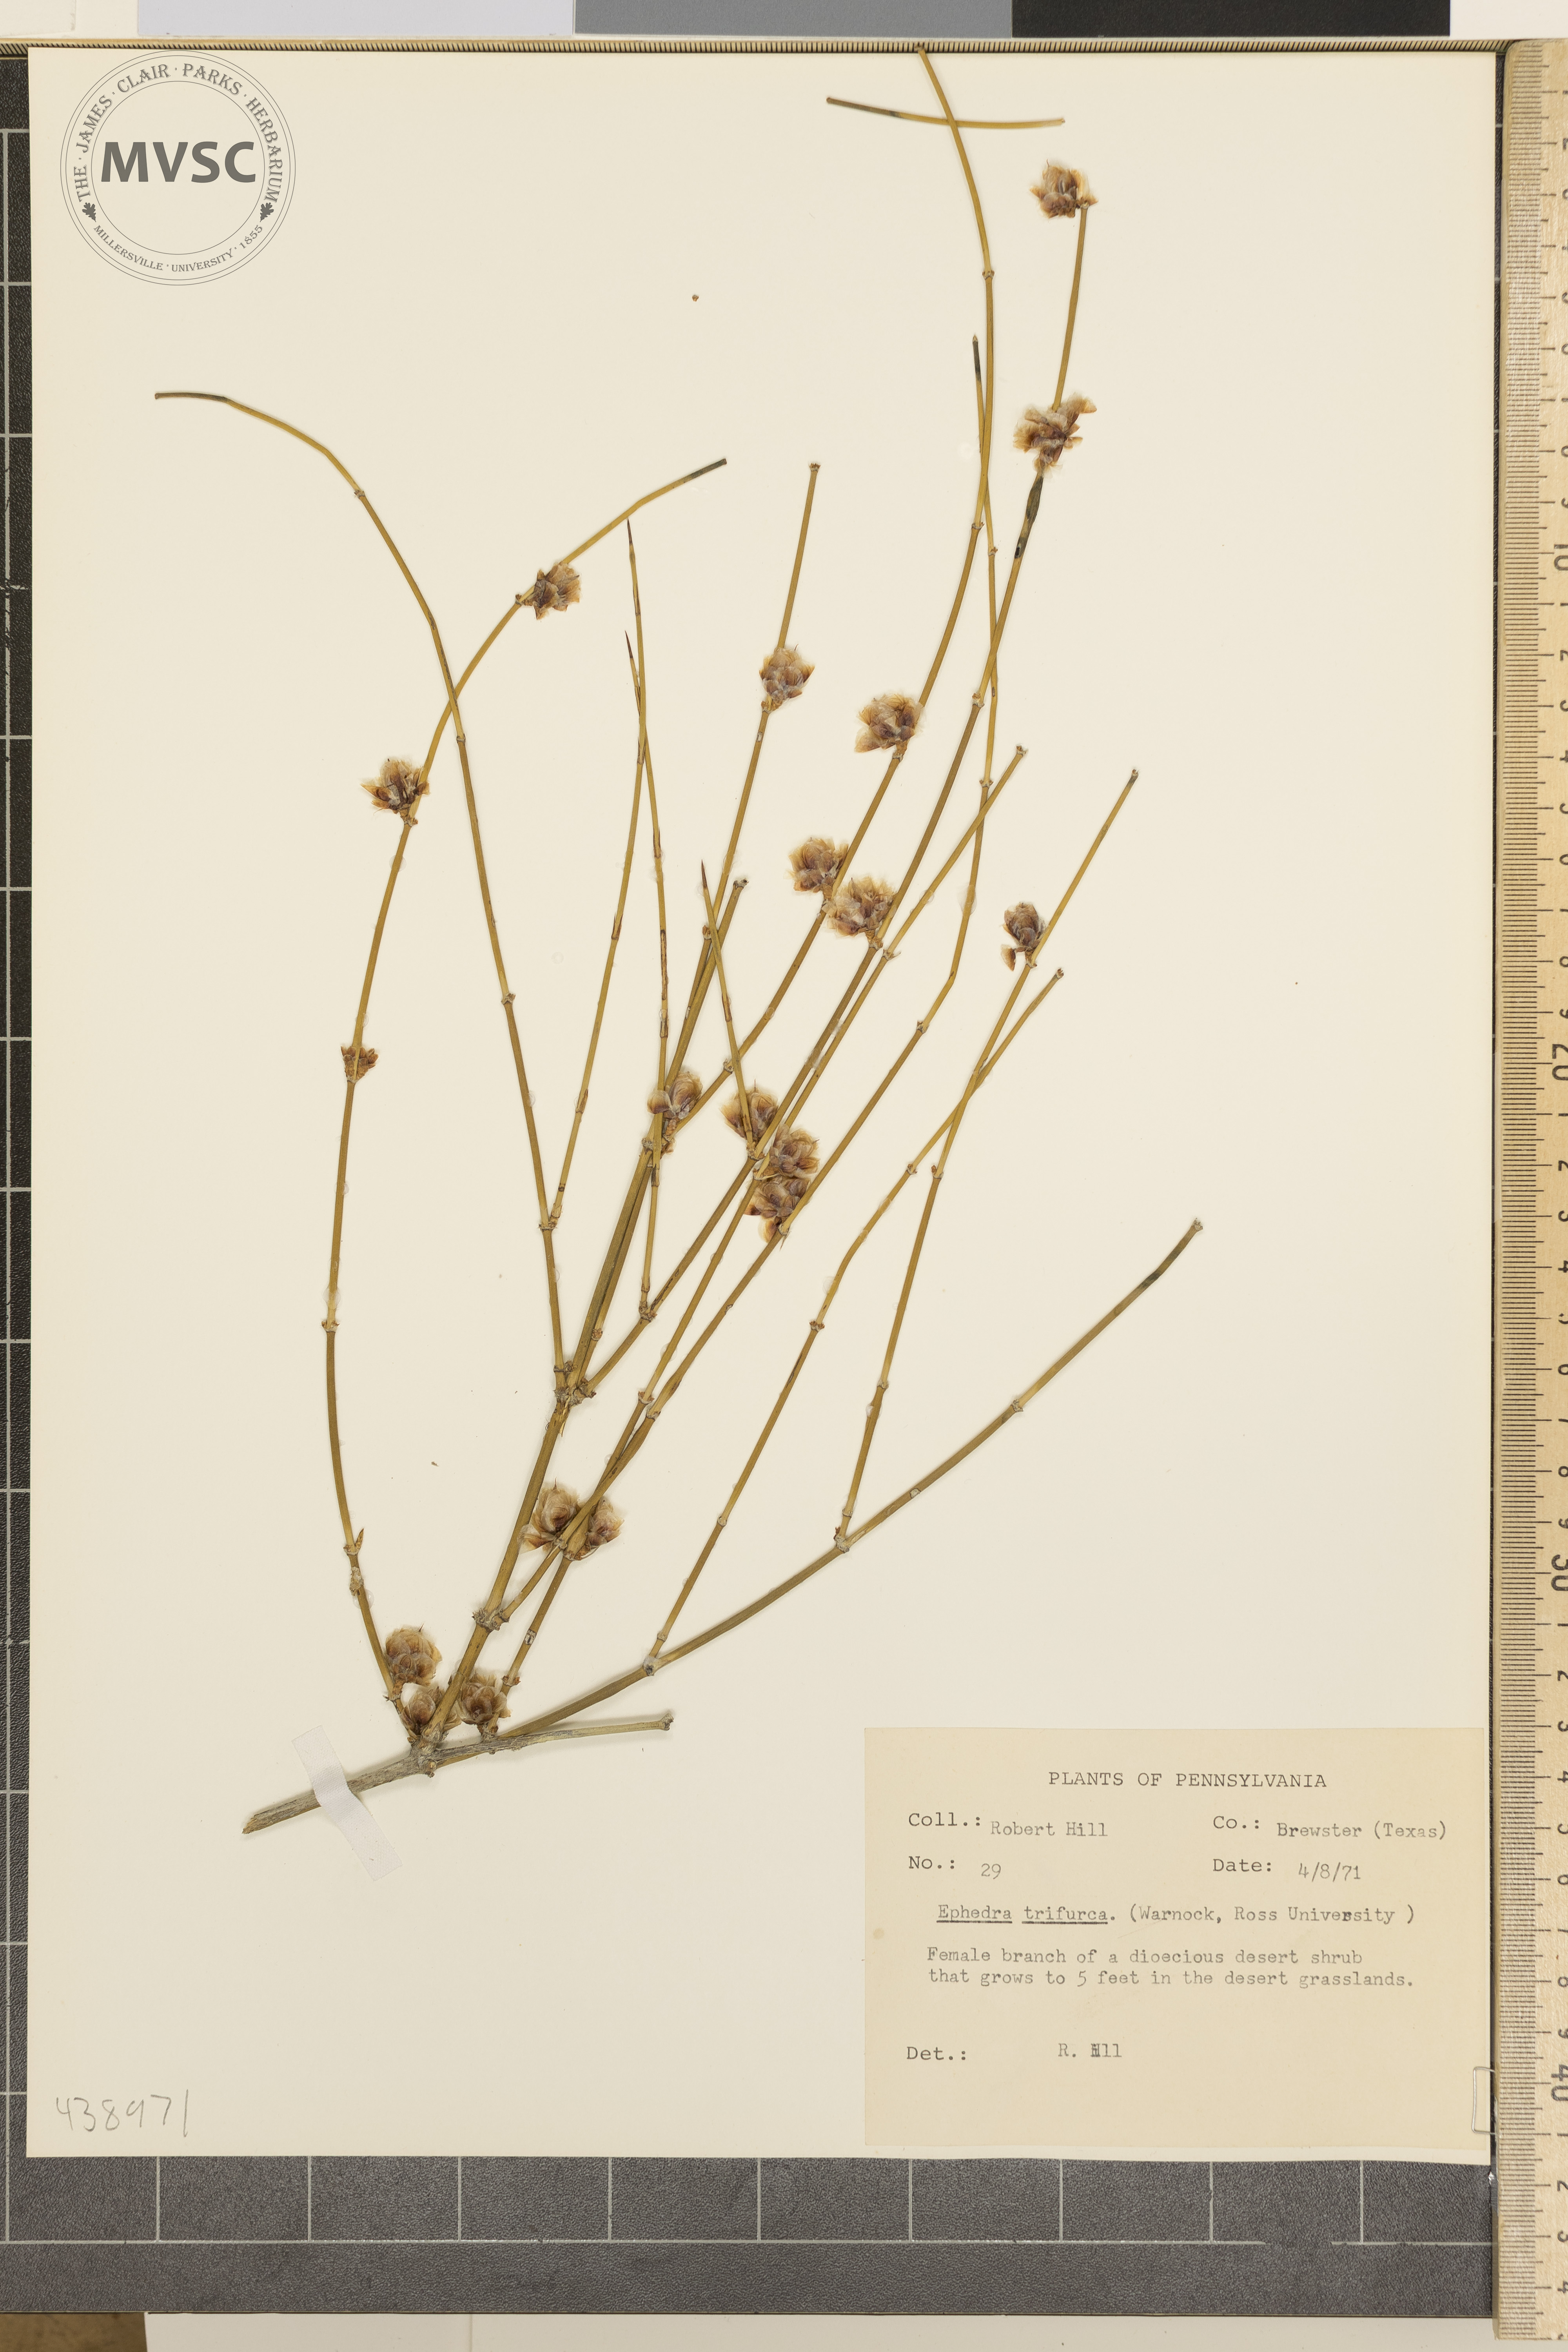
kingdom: Plantae
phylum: Tracheophyta
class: Gnetopsida
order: Ephedrales
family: Ephedraceae
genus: Ephedra
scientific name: Ephedra trifurca
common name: Mexican-tea
